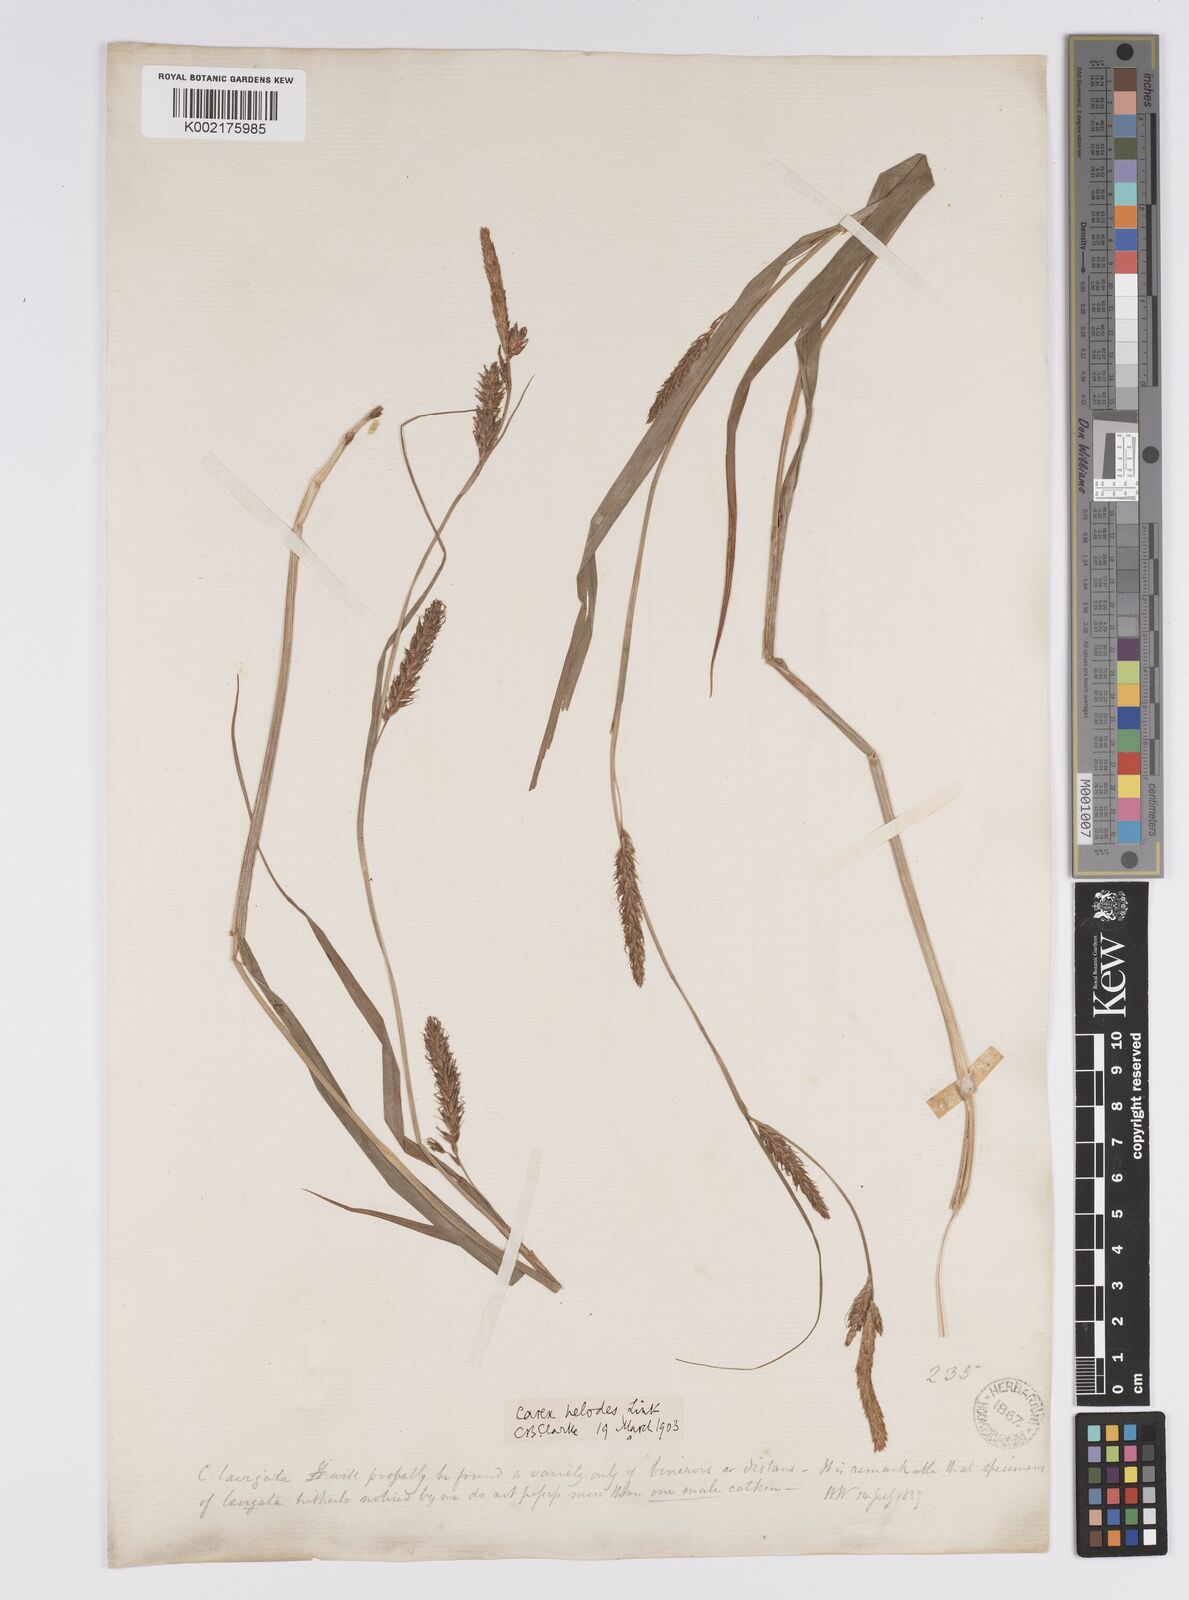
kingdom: Plantae
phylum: Tracheophyta
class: Liliopsida
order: Poales
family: Cyperaceae
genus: Carex
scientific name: Carex laevigata
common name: Smooth-stalked sedge
